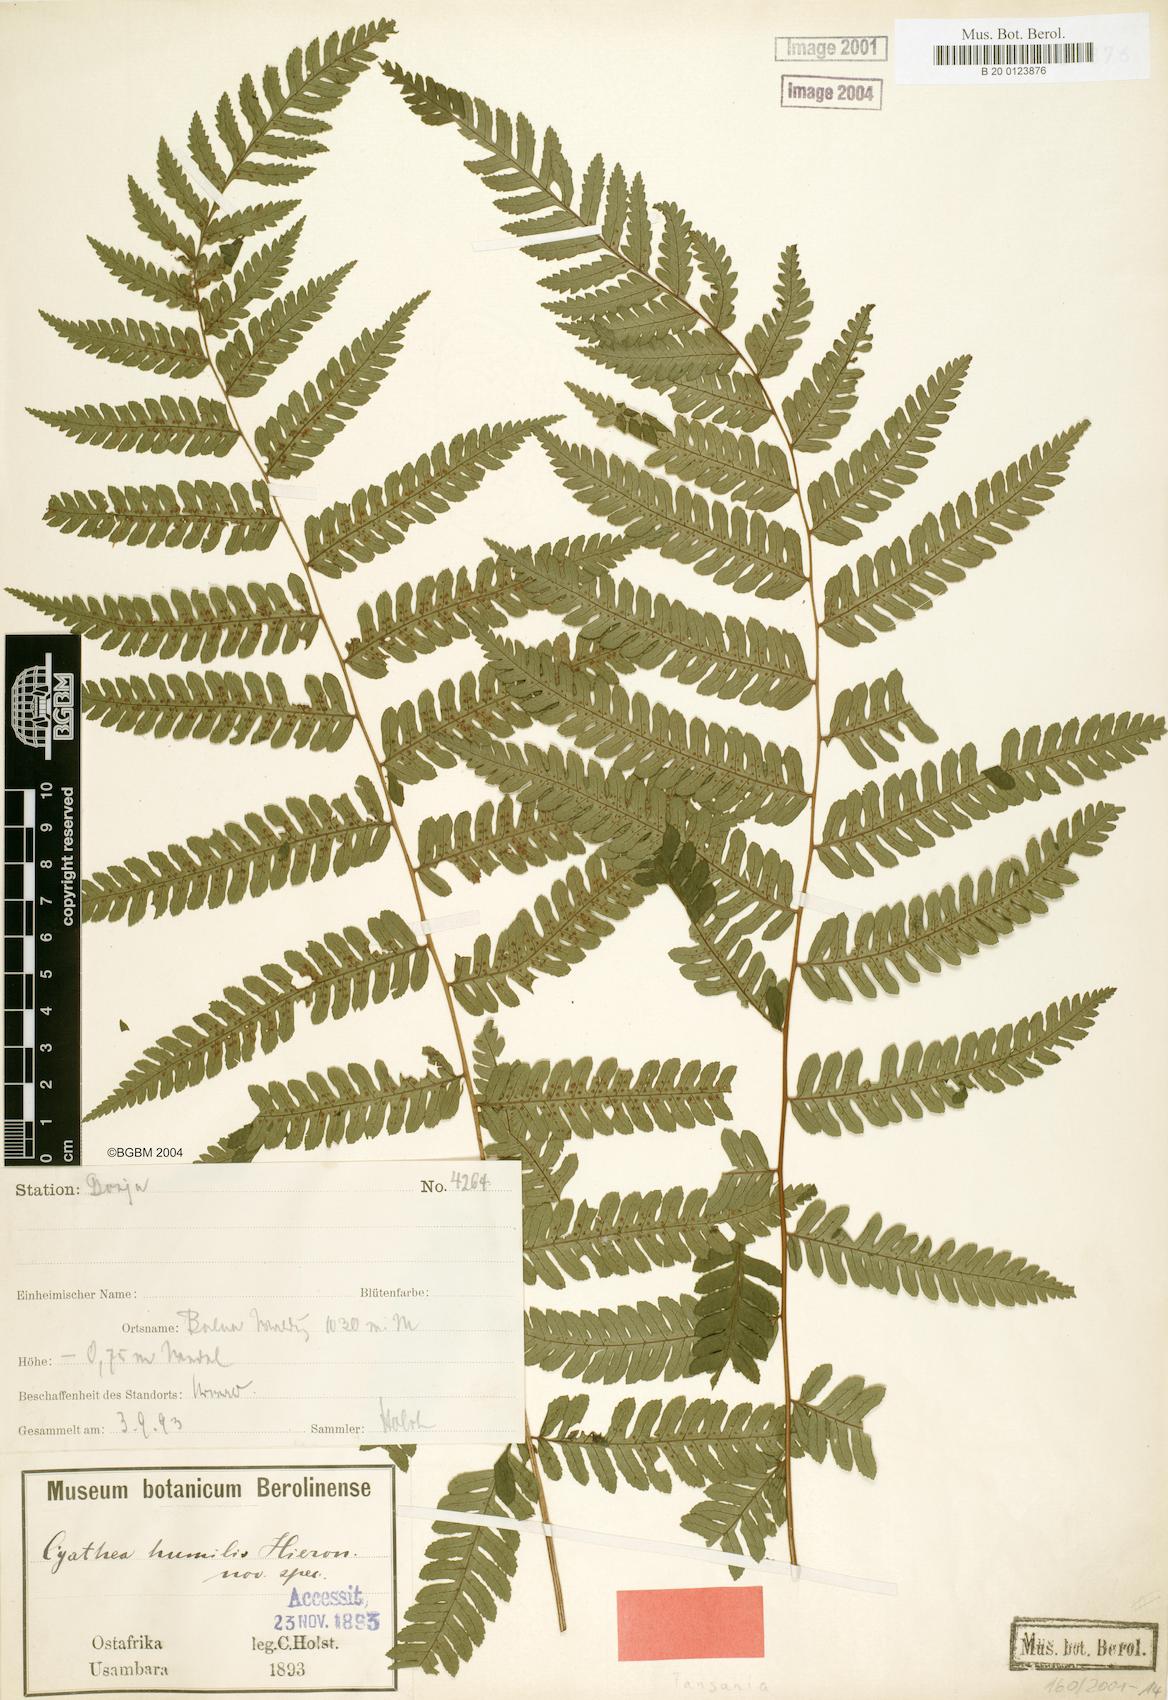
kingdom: Plantae
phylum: Tracheophyta
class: Polypodiopsida
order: Cyatheales
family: Cyatheaceae
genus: Alsophila
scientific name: Alsophila humilis
